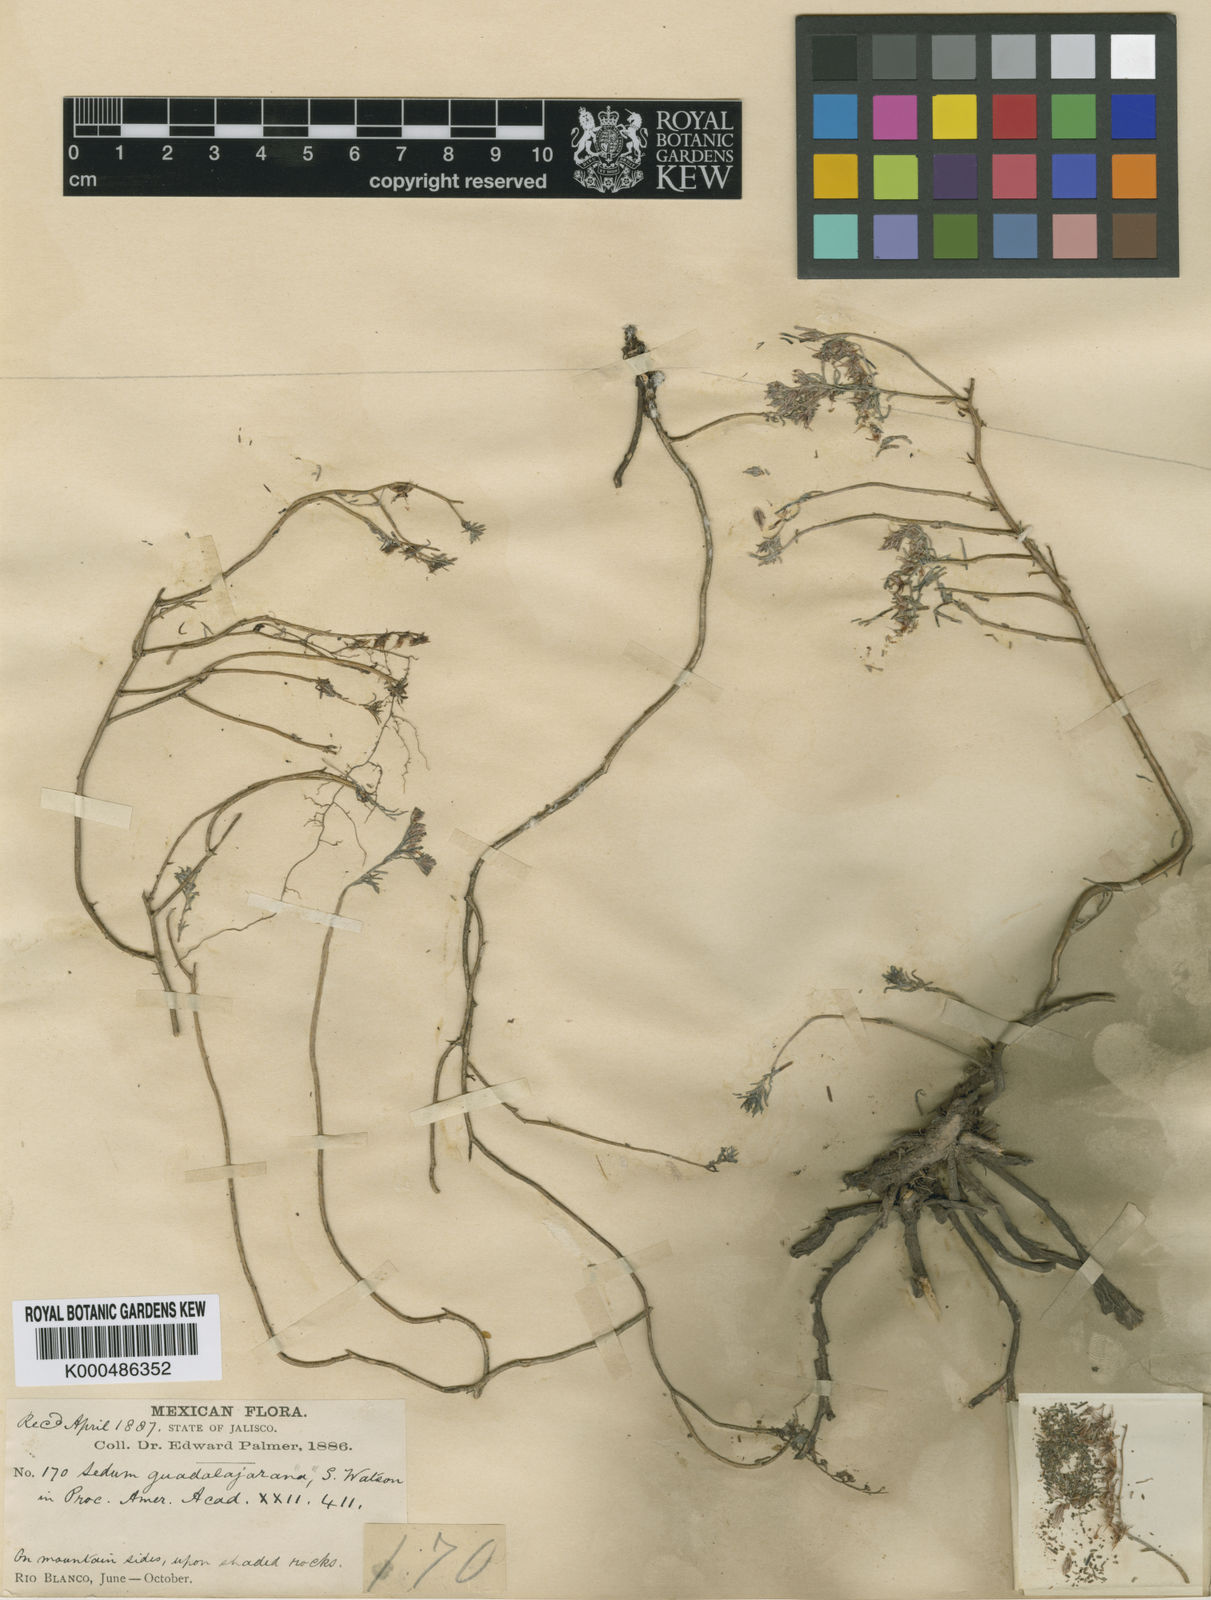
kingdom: Plantae
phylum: Tracheophyta
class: Magnoliopsida
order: Saxifragales
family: Crassulaceae
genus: Sedum
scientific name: Sedum guadalajaranum
